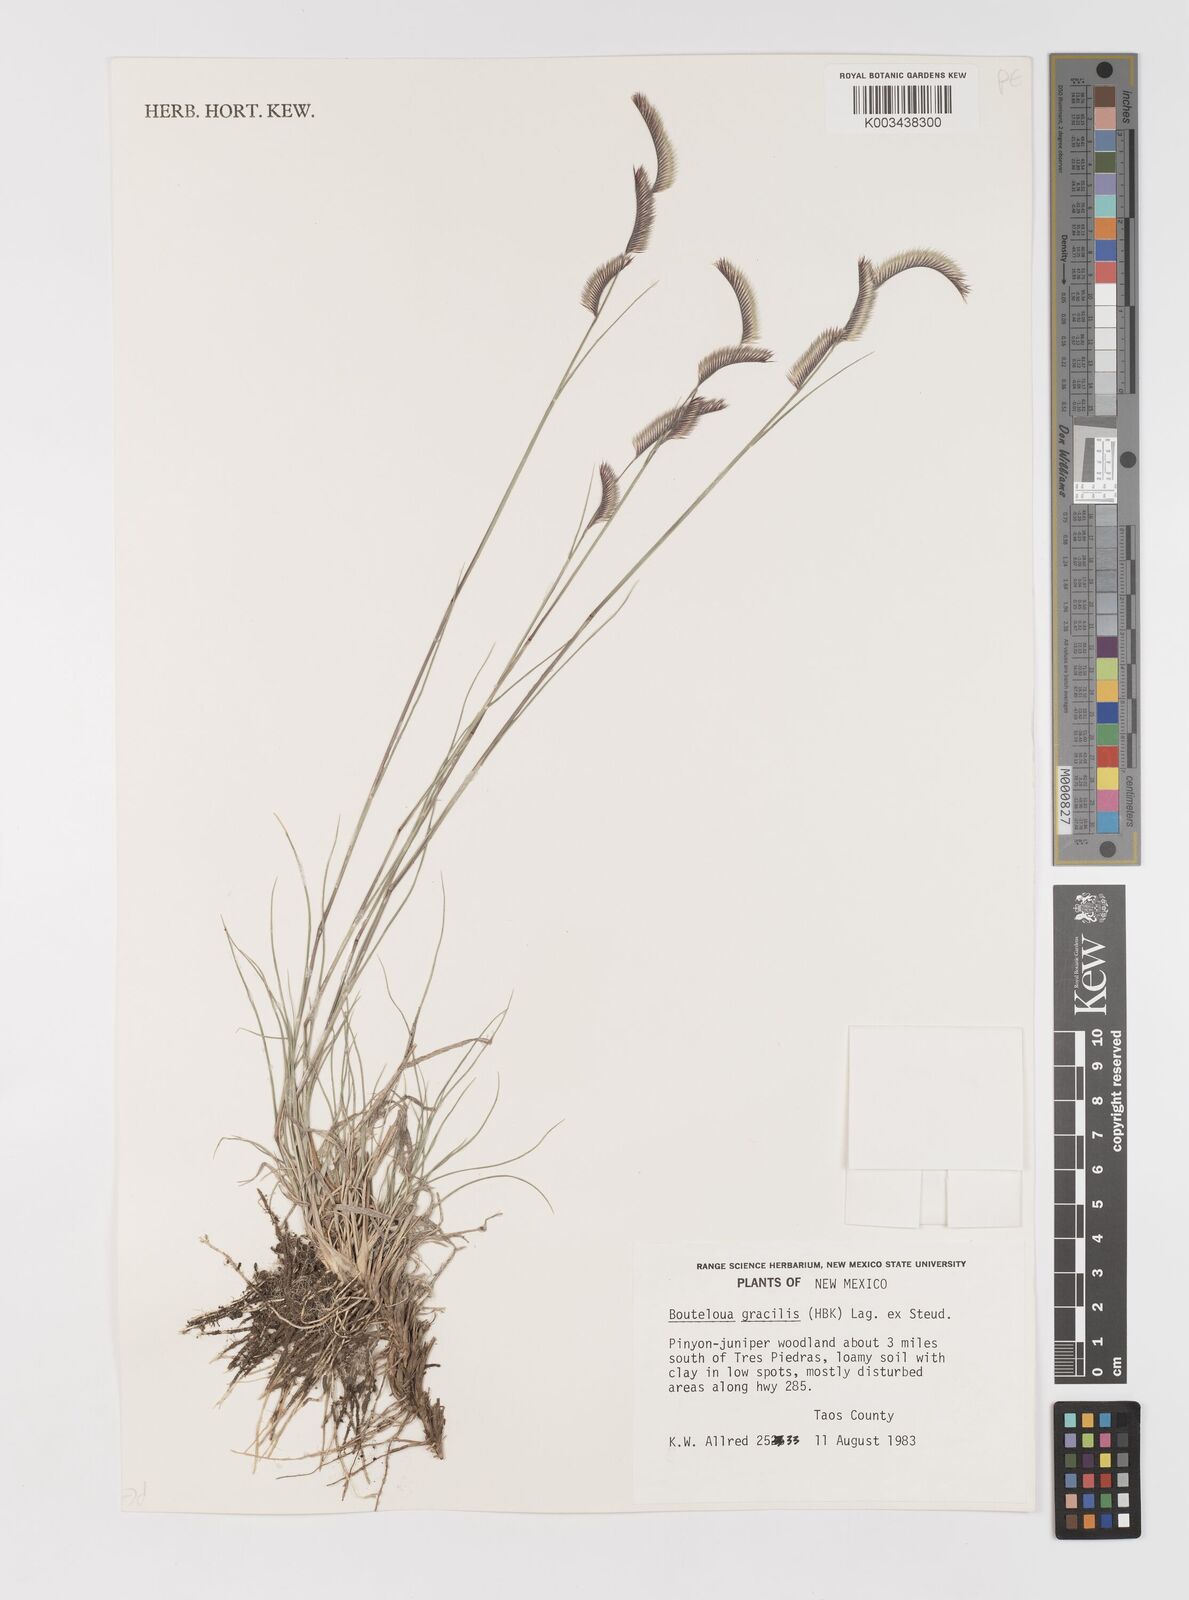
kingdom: Plantae
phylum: Tracheophyta
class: Liliopsida
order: Poales
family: Poaceae
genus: Bouteloua
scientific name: Bouteloua
